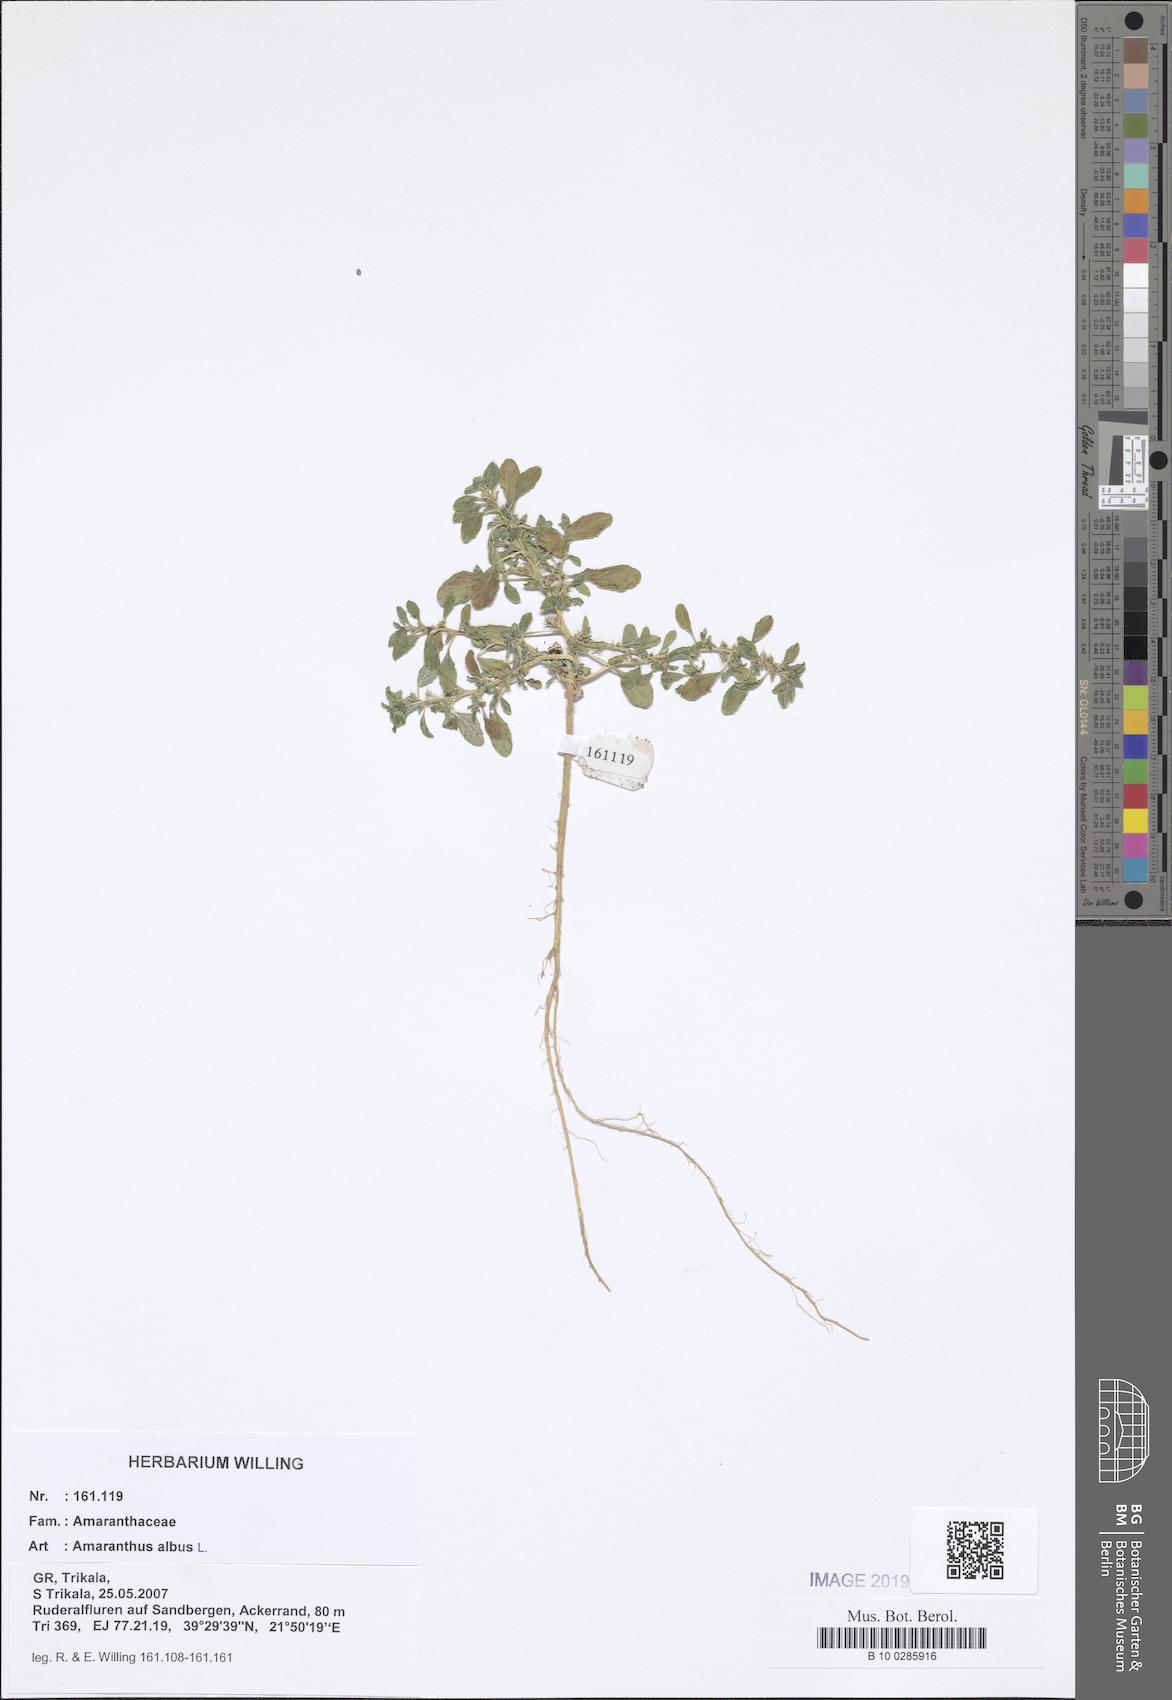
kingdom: Plantae
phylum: Tracheophyta
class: Magnoliopsida
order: Caryophyllales
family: Amaranthaceae
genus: Amaranthus
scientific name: Amaranthus albus
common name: White pigweed
